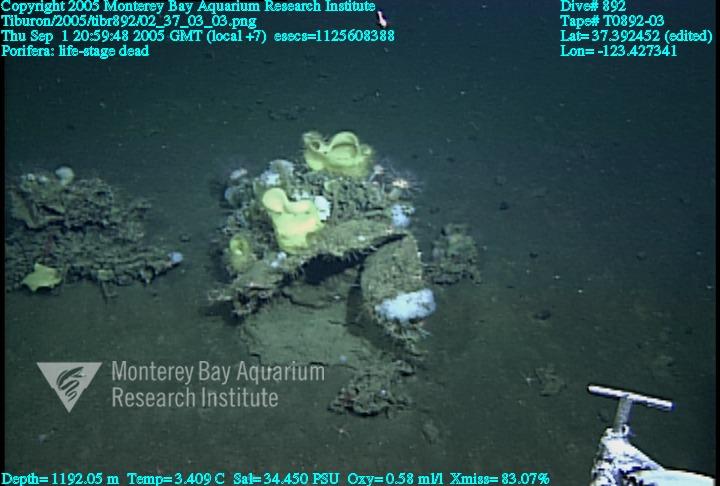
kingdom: Animalia
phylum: Porifera
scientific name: Porifera
